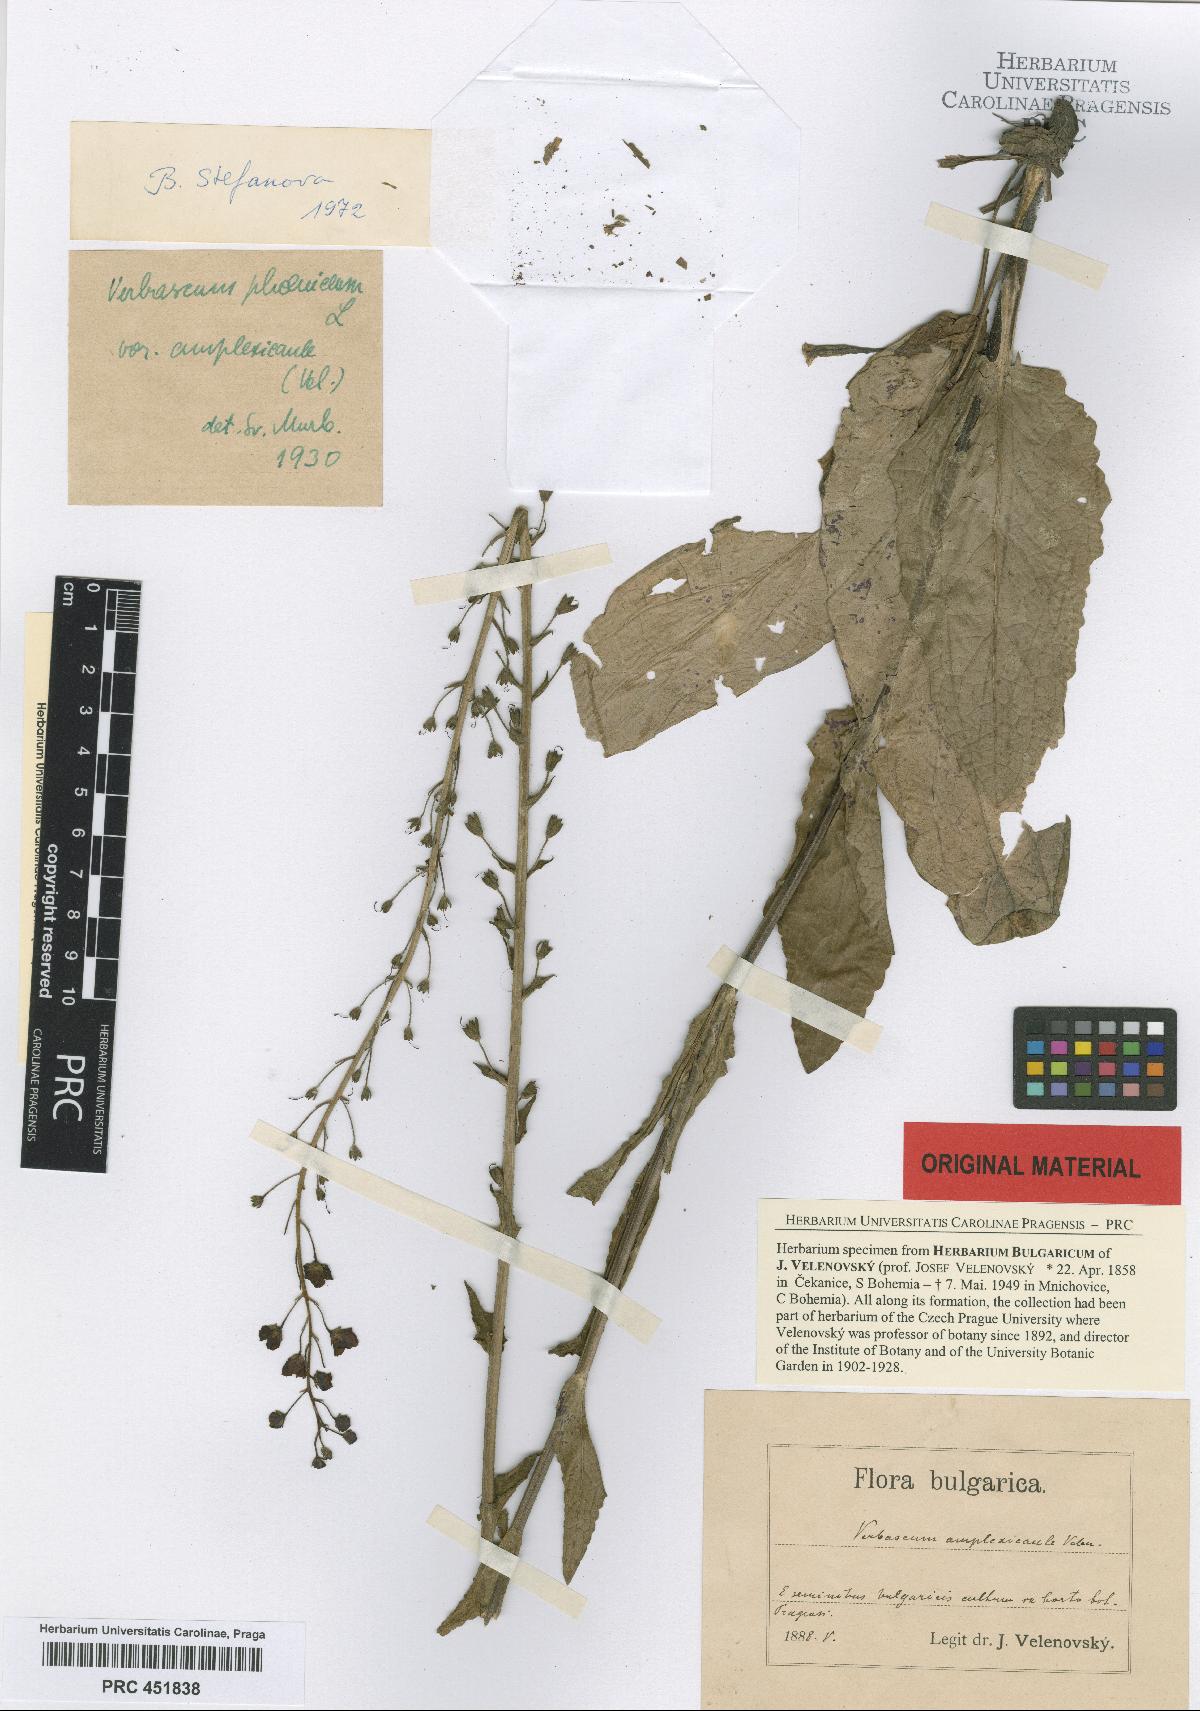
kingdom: Plantae
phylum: Tracheophyta
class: Magnoliopsida
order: Lamiales
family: Scrophulariaceae
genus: Verbascum
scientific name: Verbascum phoeniceum
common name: Purple mullein
